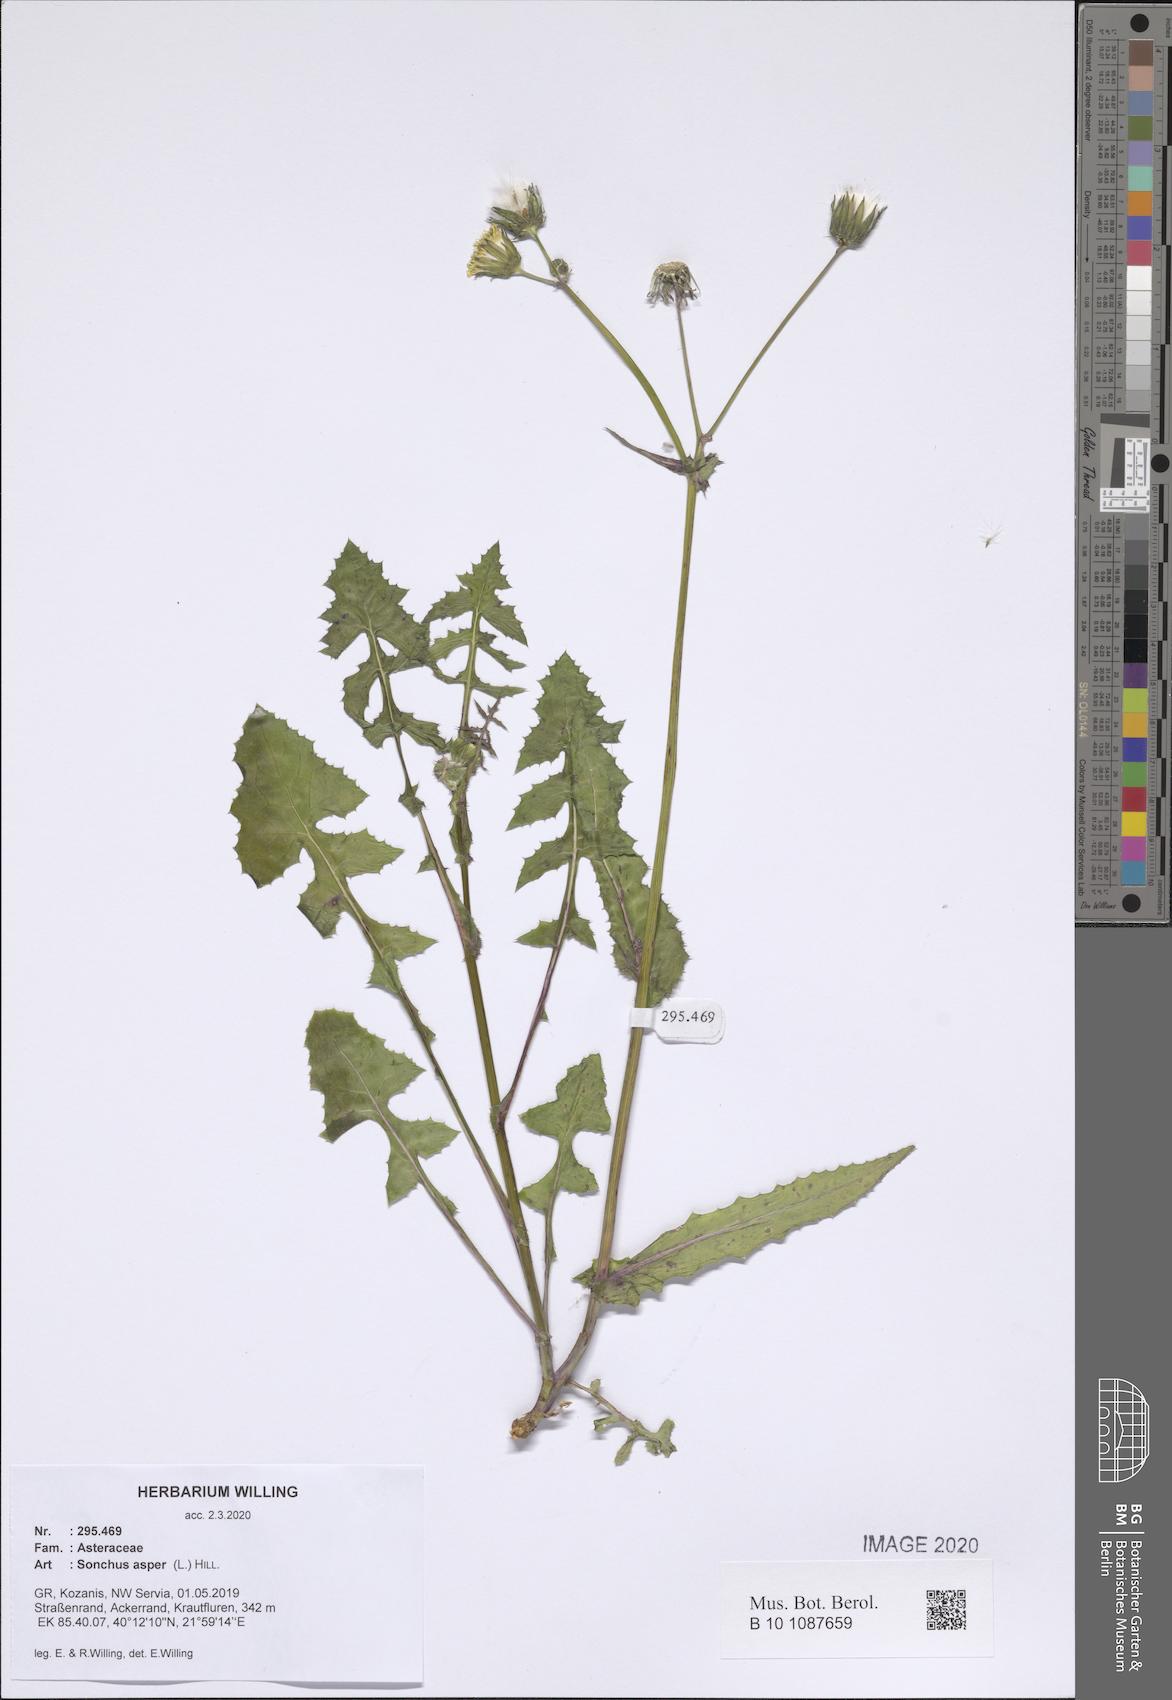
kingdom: Plantae
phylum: Tracheophyta
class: Magnoliopsida
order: Asterales
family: Asteraceae
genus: Sonchus
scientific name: Sonchus asper
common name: Prickly sow-thistle
